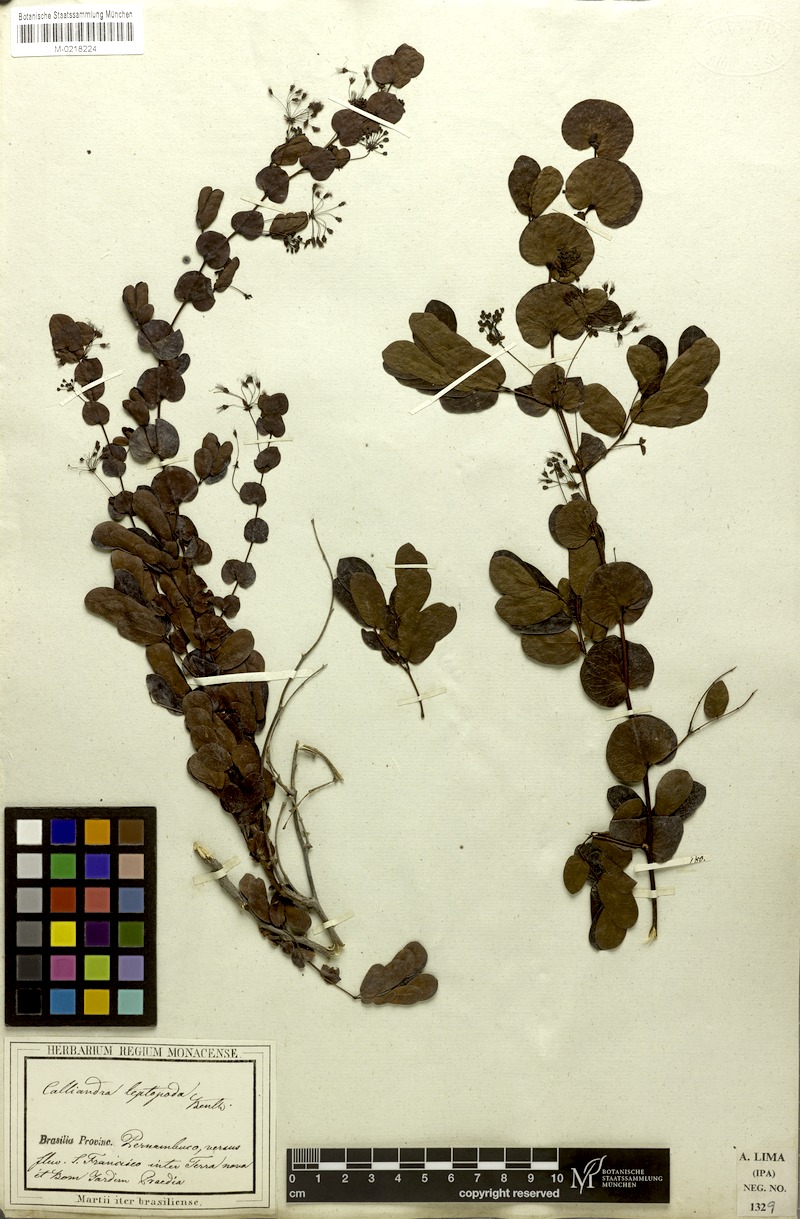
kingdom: Plantae
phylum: Tracheophyta
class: Magnoliopsida
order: Fabales
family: Fabaceae
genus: Calliandra
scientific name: Calliandra leptopoda
